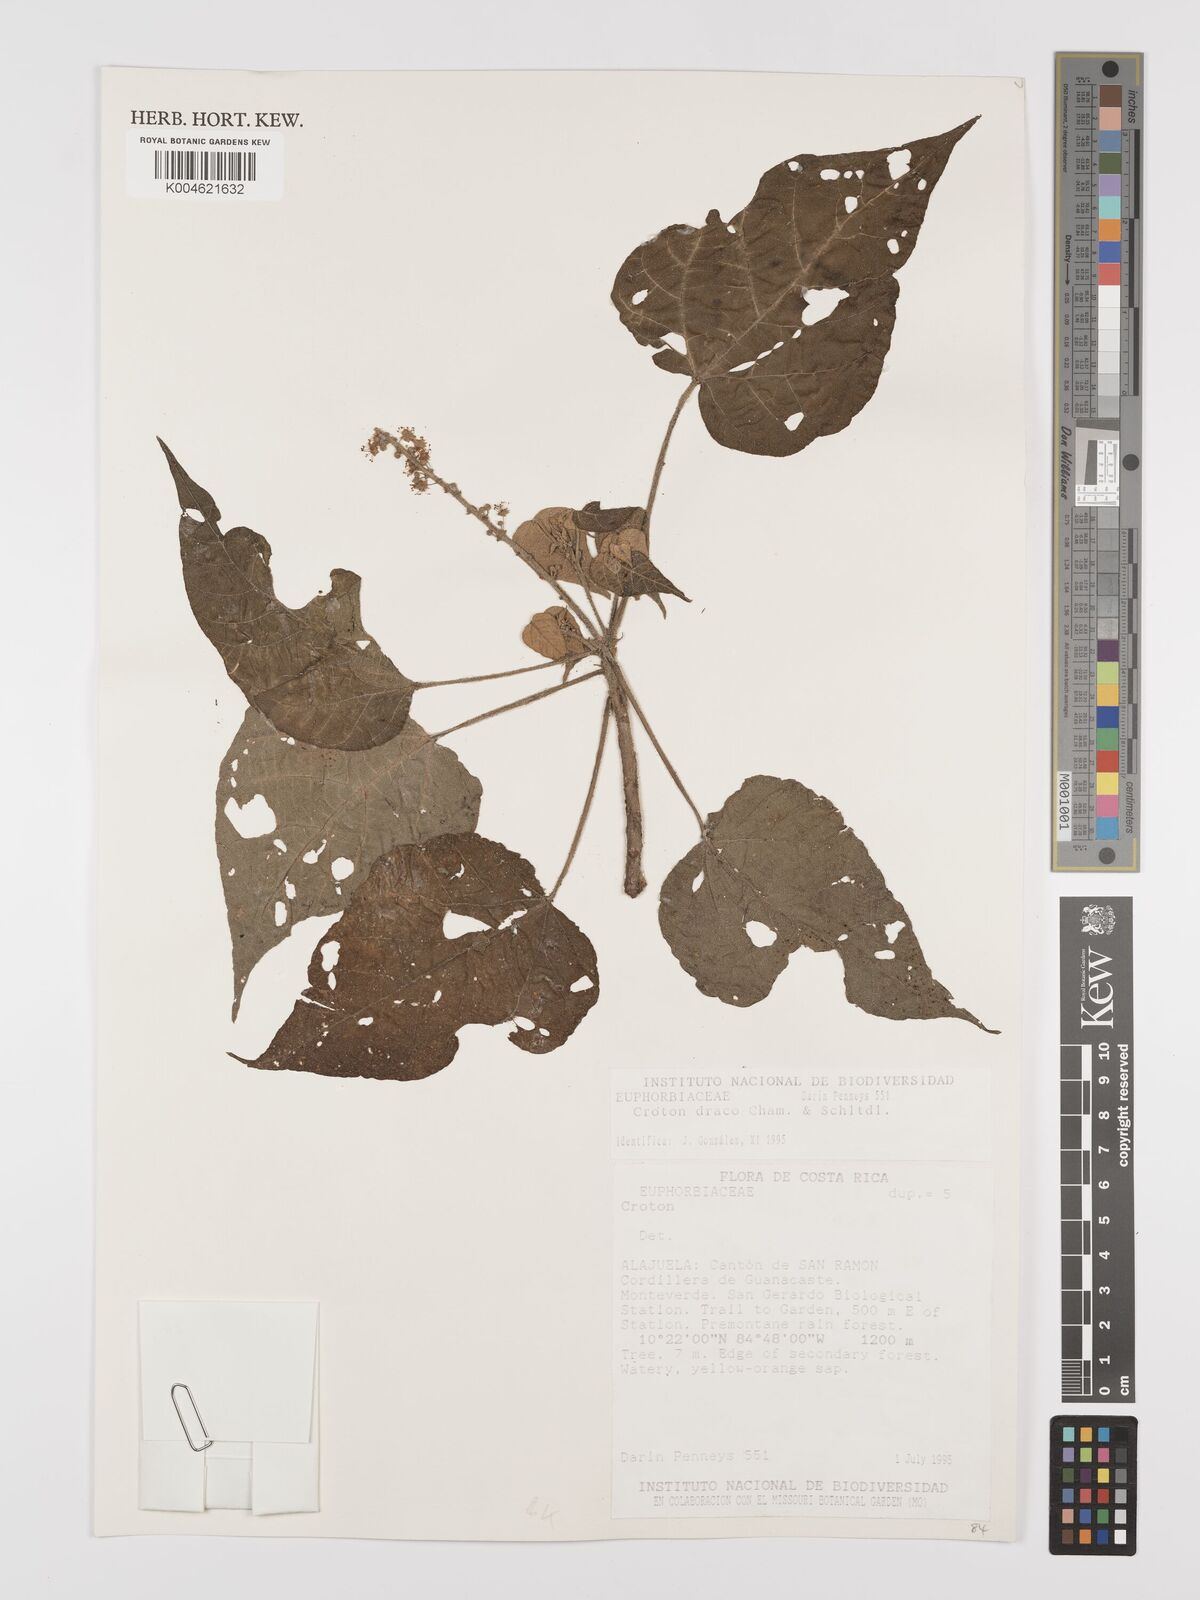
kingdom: Plantae
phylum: Tracheophyta
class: Magnoliopsida
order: Malpighiales
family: Euphorbiaceae
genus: Croton
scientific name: Croton draco
